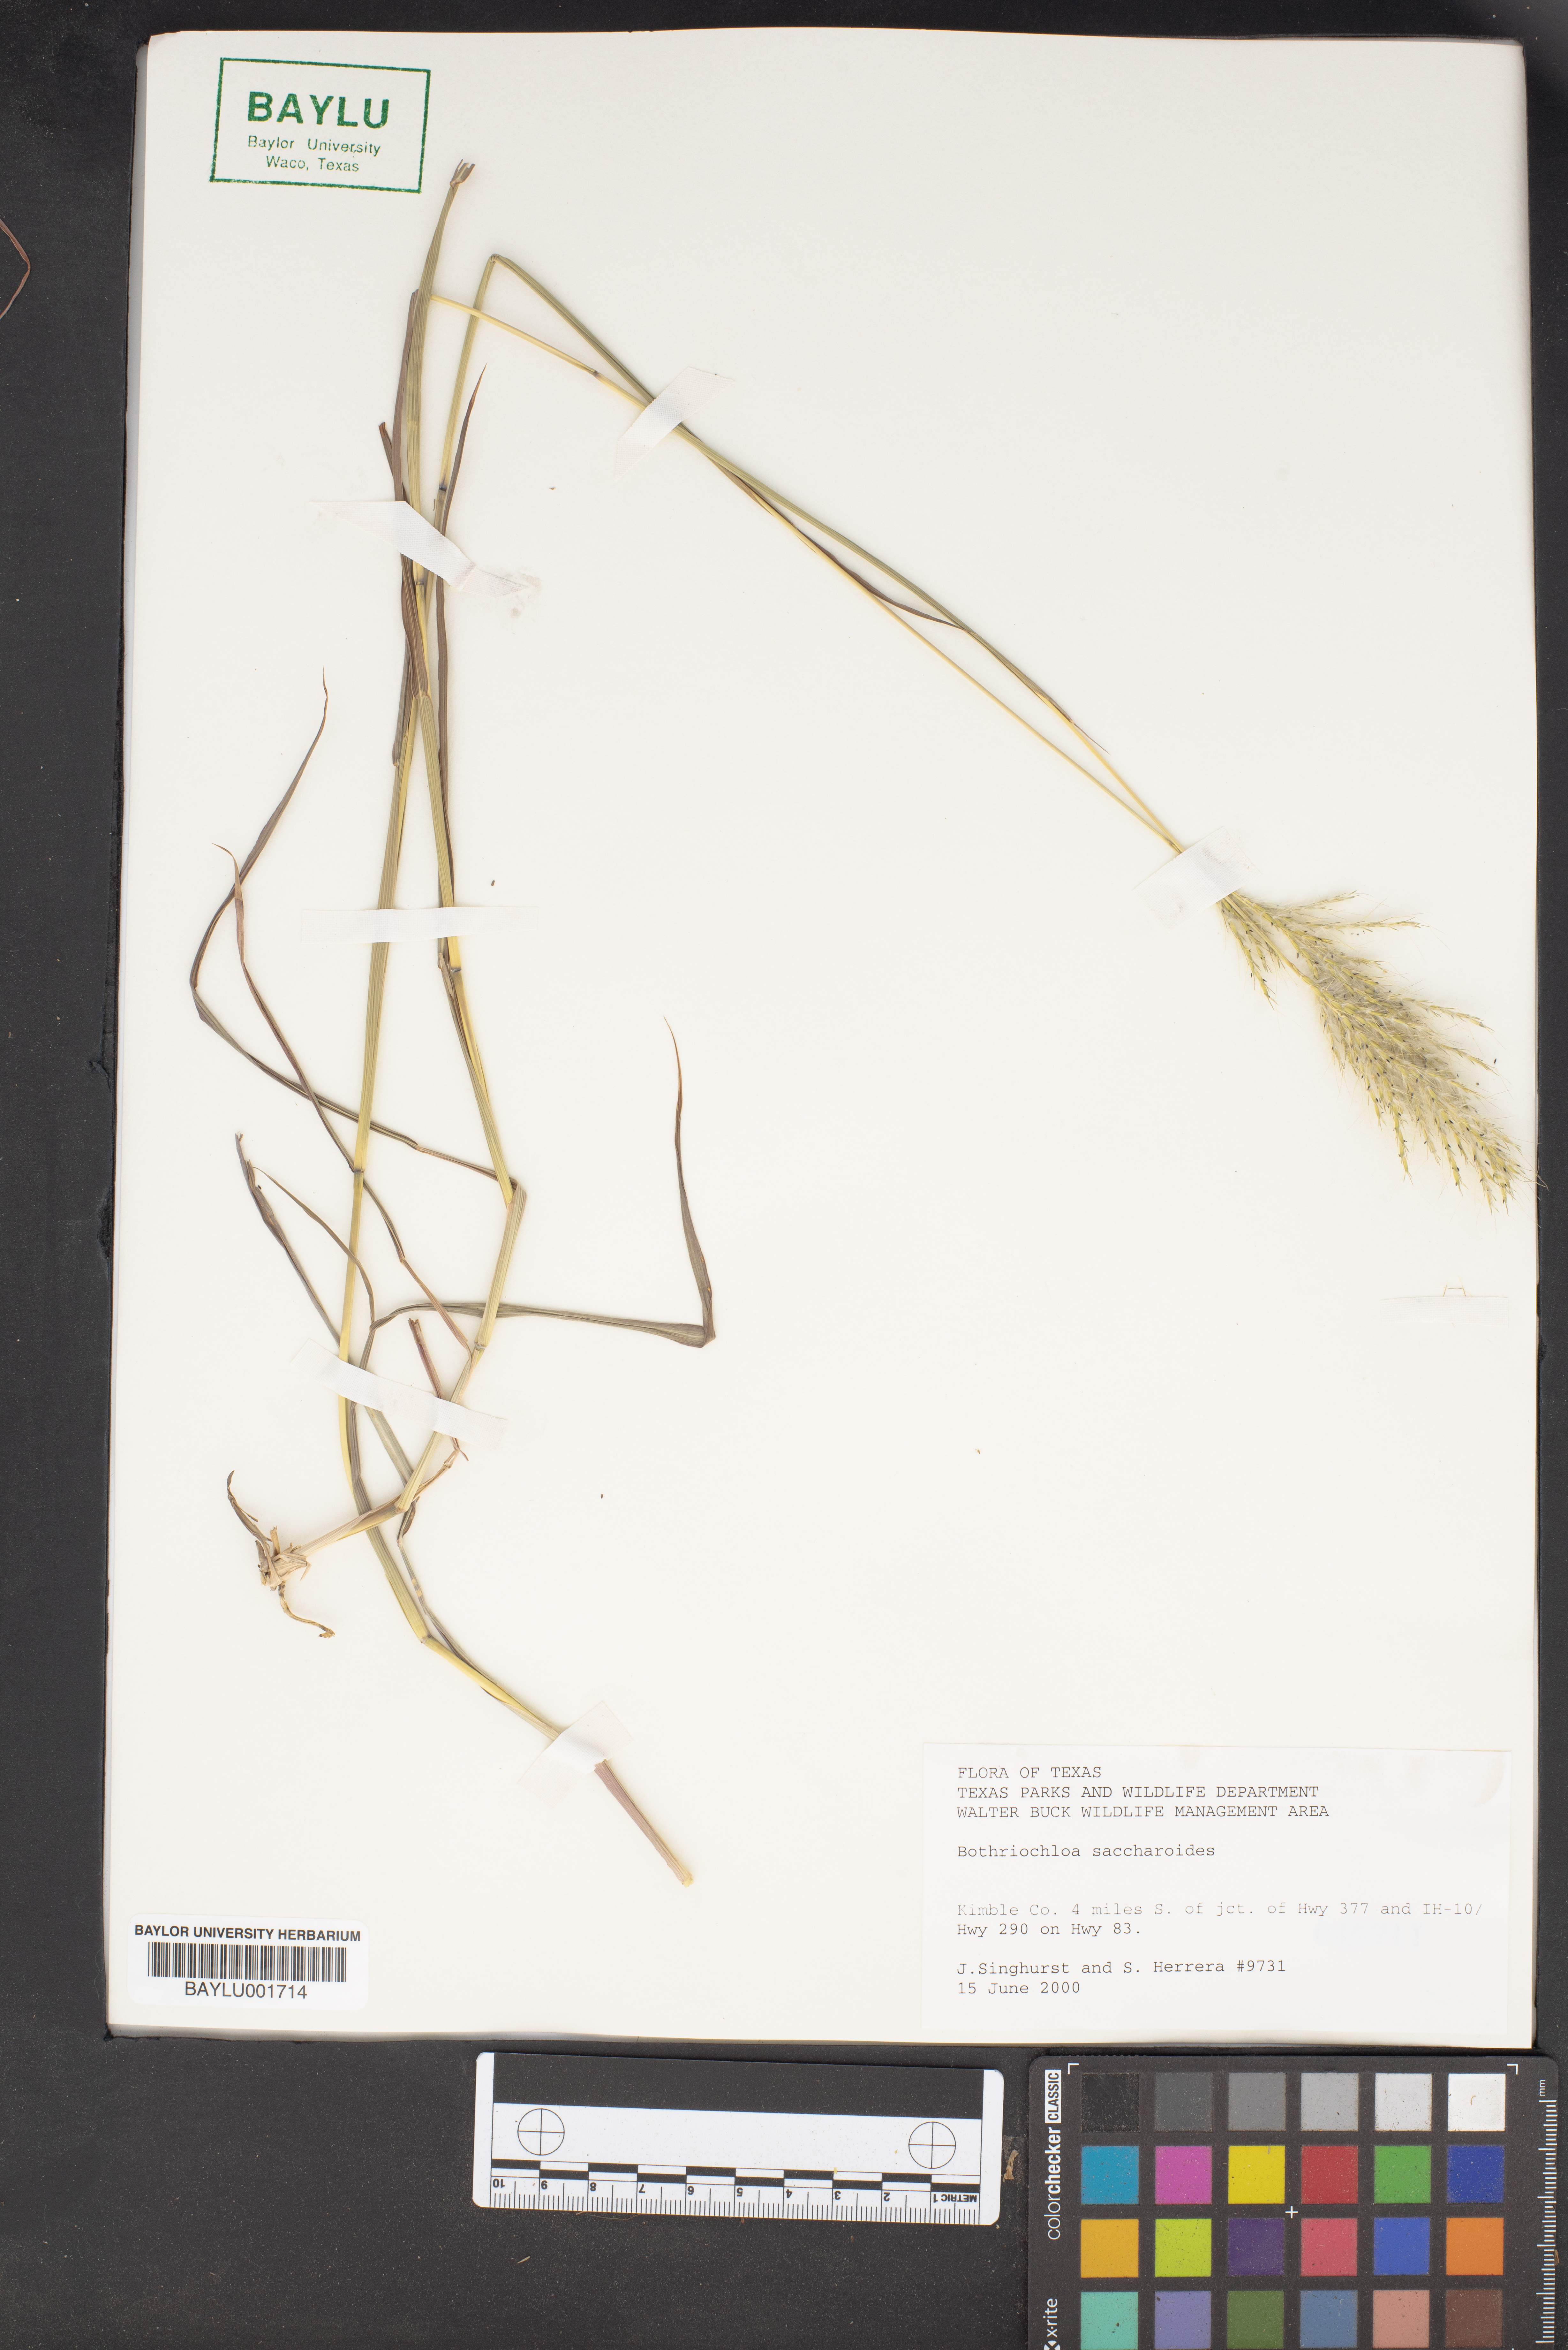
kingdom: Plantae
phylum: Tracheophyta
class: Liliopsida
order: Poales
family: Poaceae
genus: Bothriochloa
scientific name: Bothriochloa saccharoides
